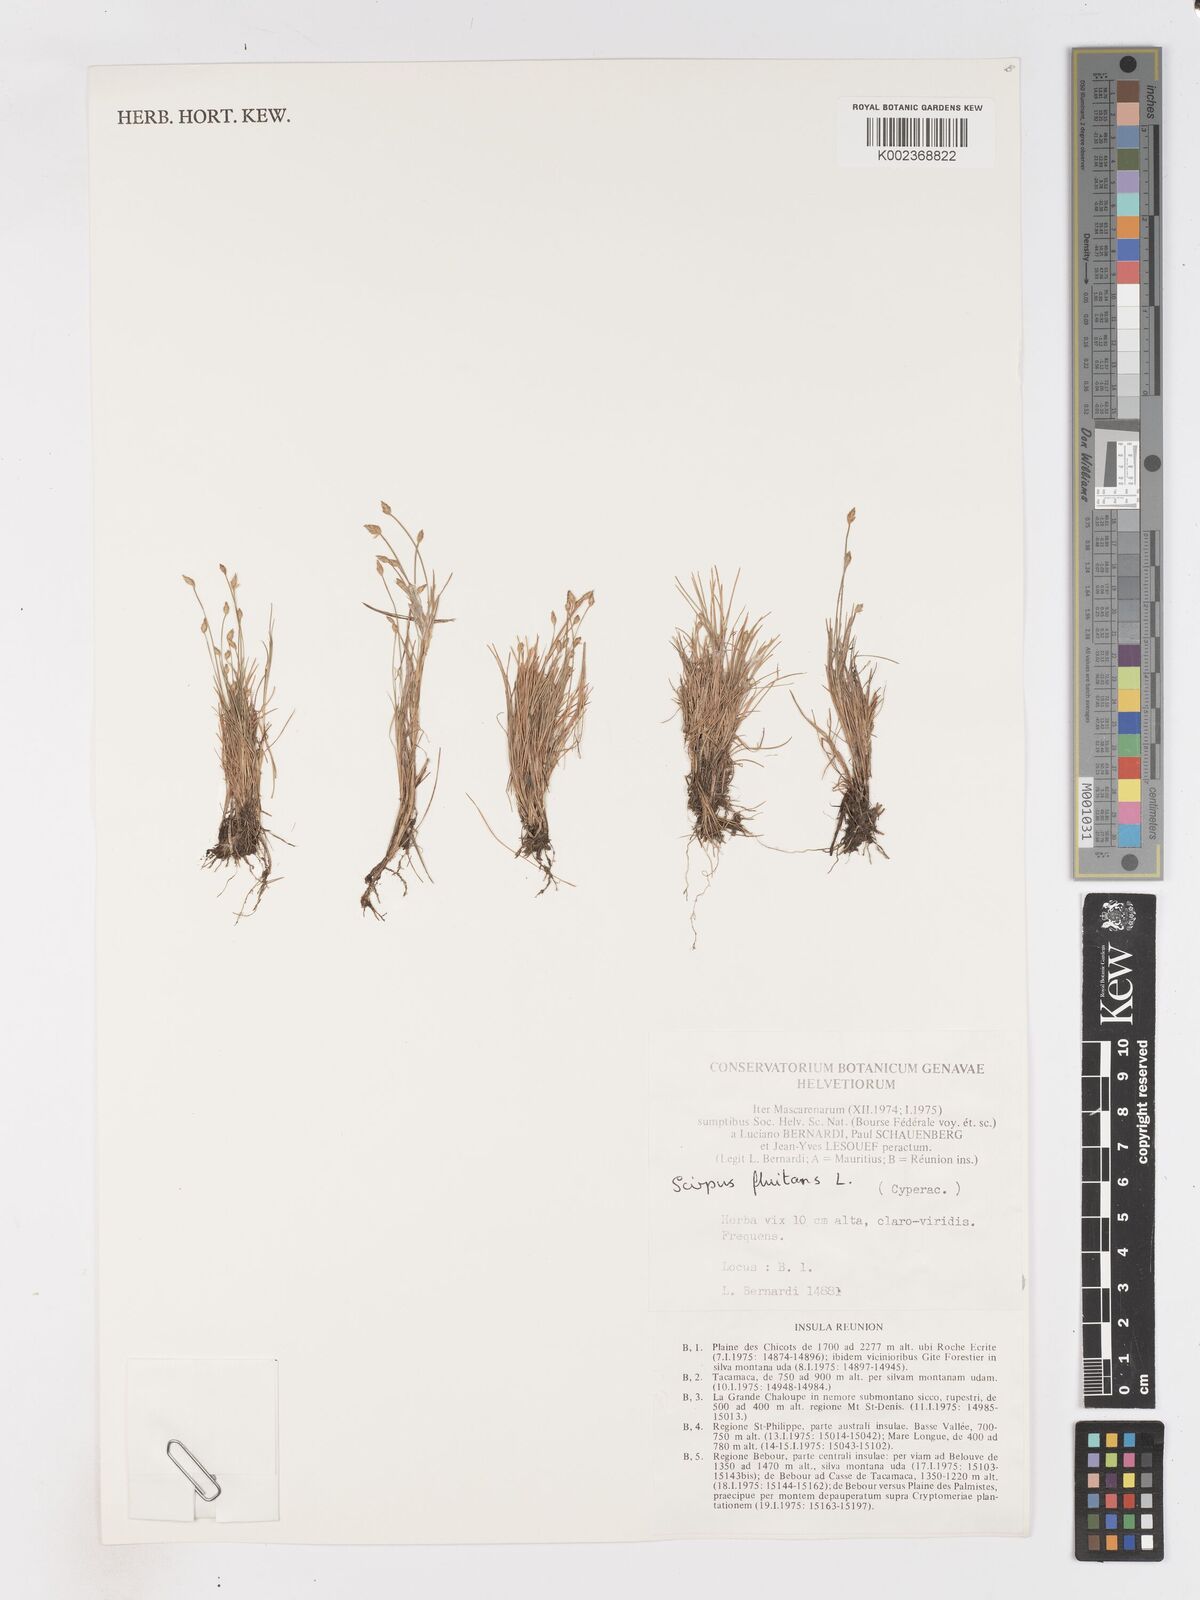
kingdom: Plantae
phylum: Tracheophyta
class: Liliopsida
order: Poales
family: Cyperaceae
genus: Isolepis
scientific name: Isolepis fluitans
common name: Floating club-rush
